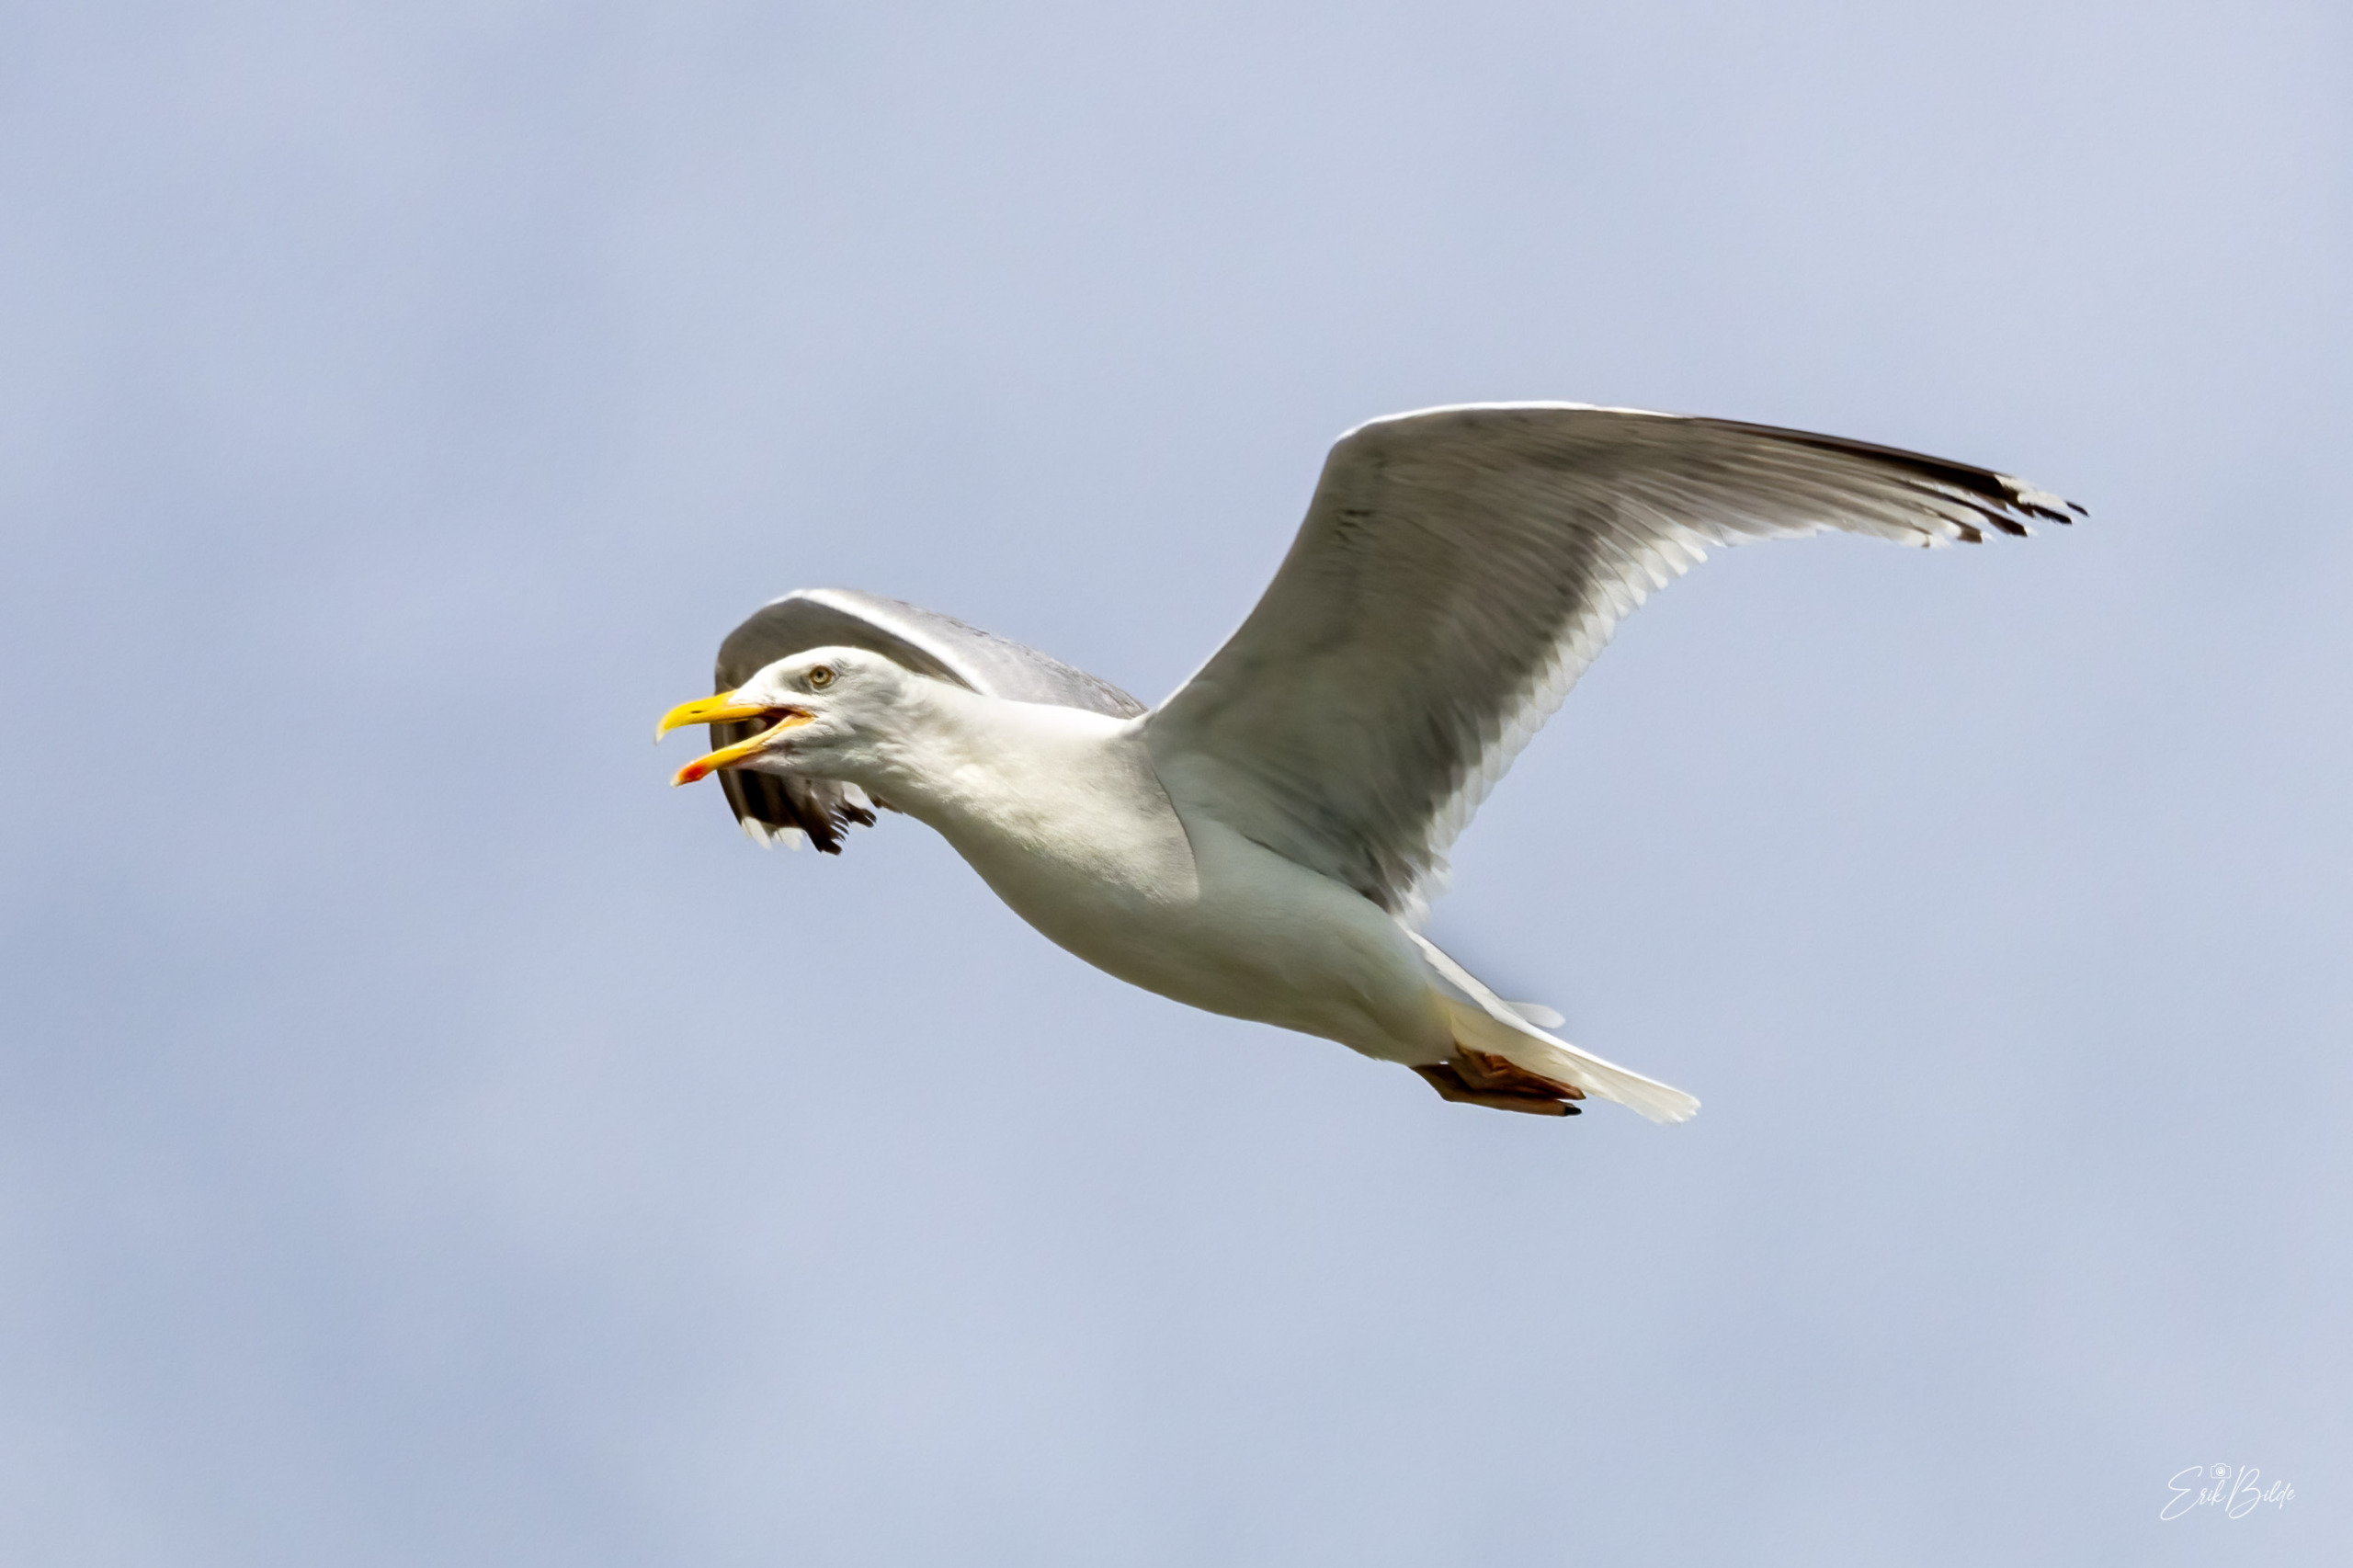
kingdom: Animalia
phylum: Chordata
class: Aves
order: Charadriiformes
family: Laridae
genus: Larus
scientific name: Larus argentatus
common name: Sølvmåge
